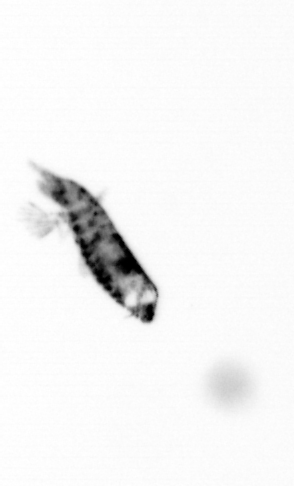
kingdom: Animalia
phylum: Arthropoda
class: Copepoda
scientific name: Copepoda
